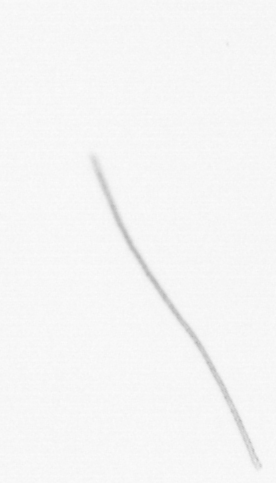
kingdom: Chromista
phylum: Ochrophyta
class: Bacillariophyceae
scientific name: Bacillariophyceae
